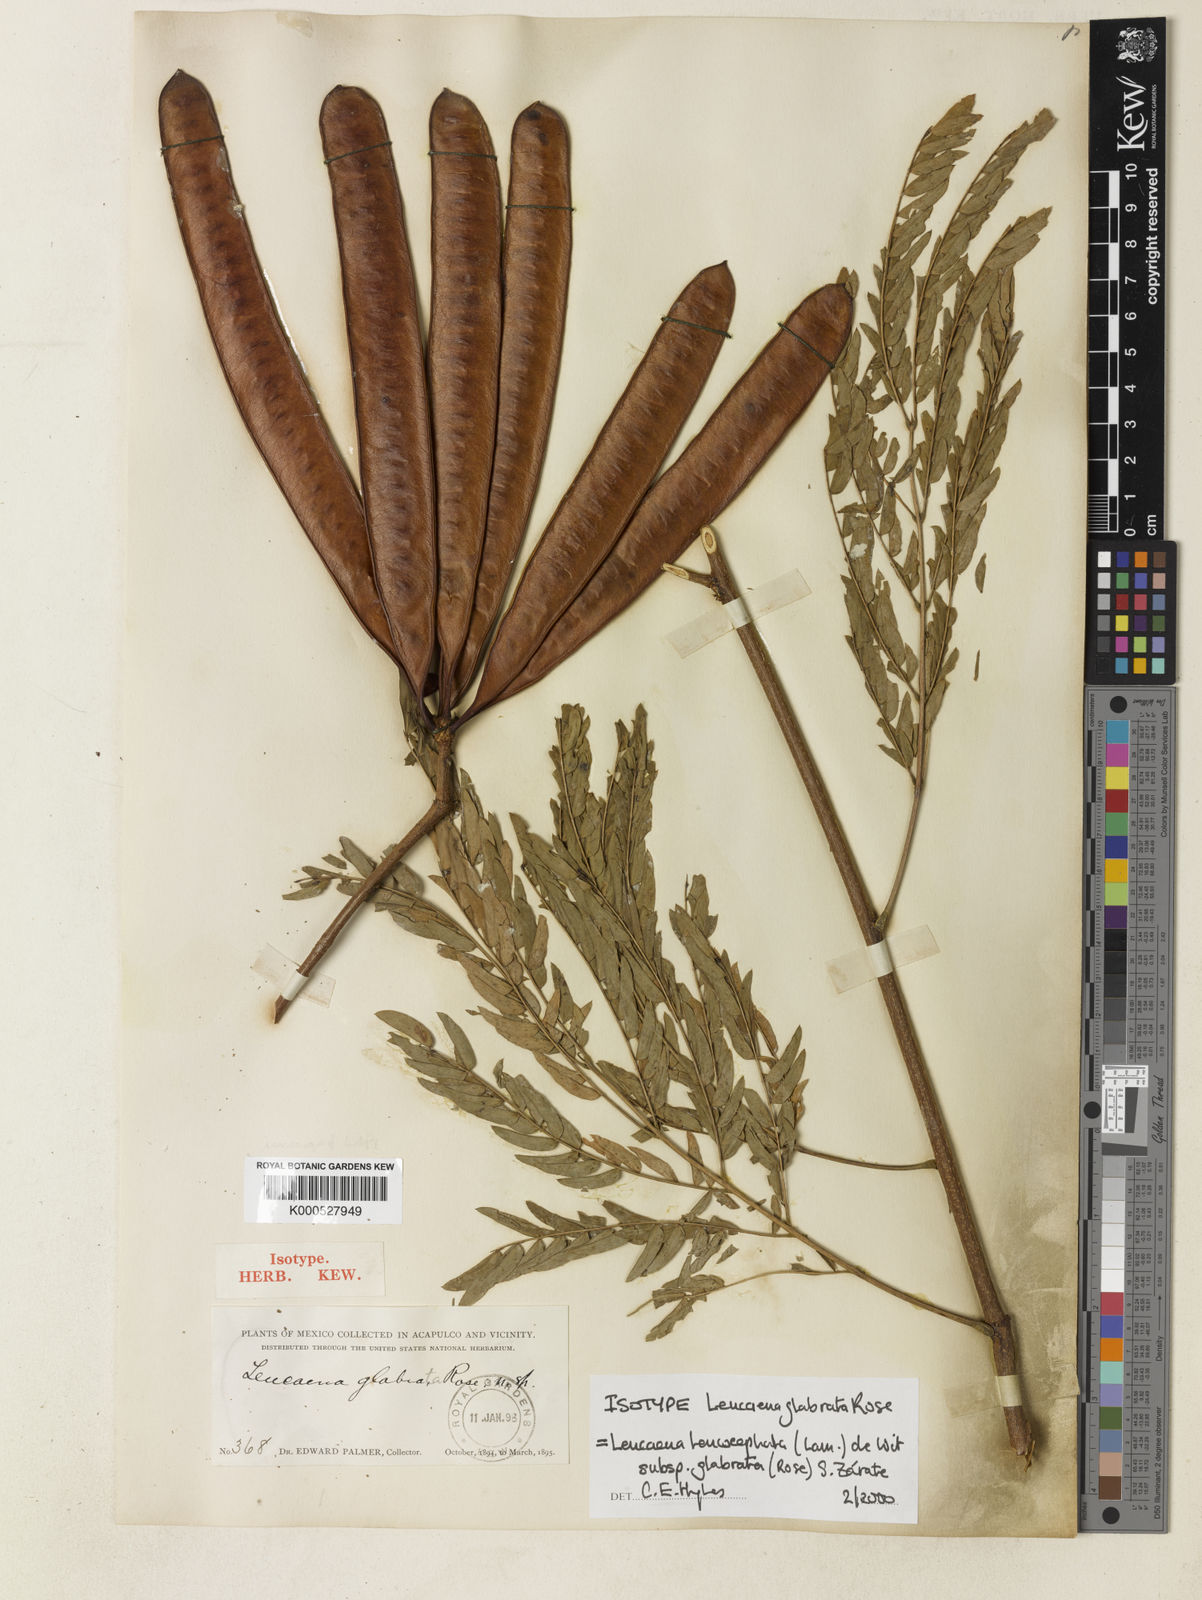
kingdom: Plantae
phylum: Tracheophyta
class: Magnoliopsida
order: Fabales
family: Fabaceae
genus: Leucaena
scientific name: Leucaena leucocephala
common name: White leadtree
